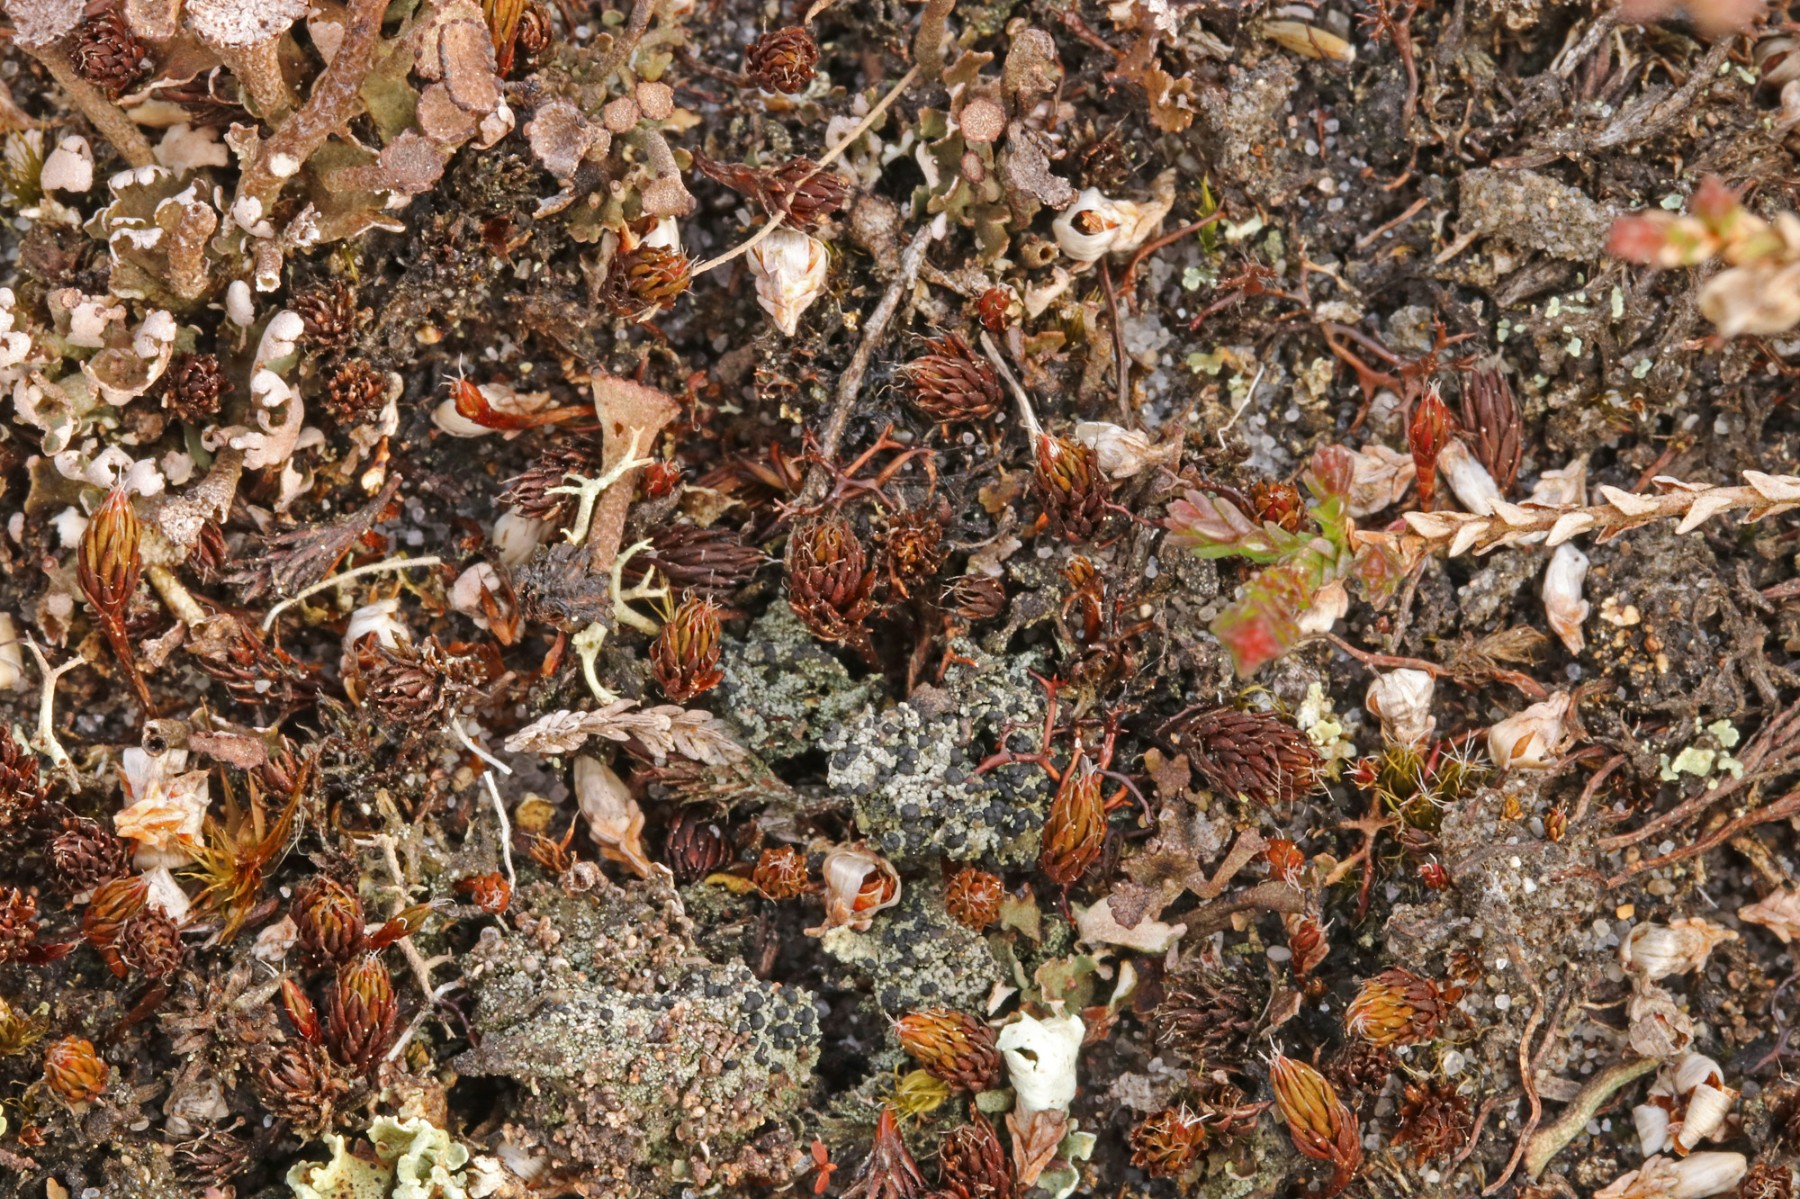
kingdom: Fungi
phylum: Ascomycota
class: Lecanoromycetes
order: Lecanorales
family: Byssolomataceae
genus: Micarea
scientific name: Micarea lignaria
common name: tørve-knaplav
